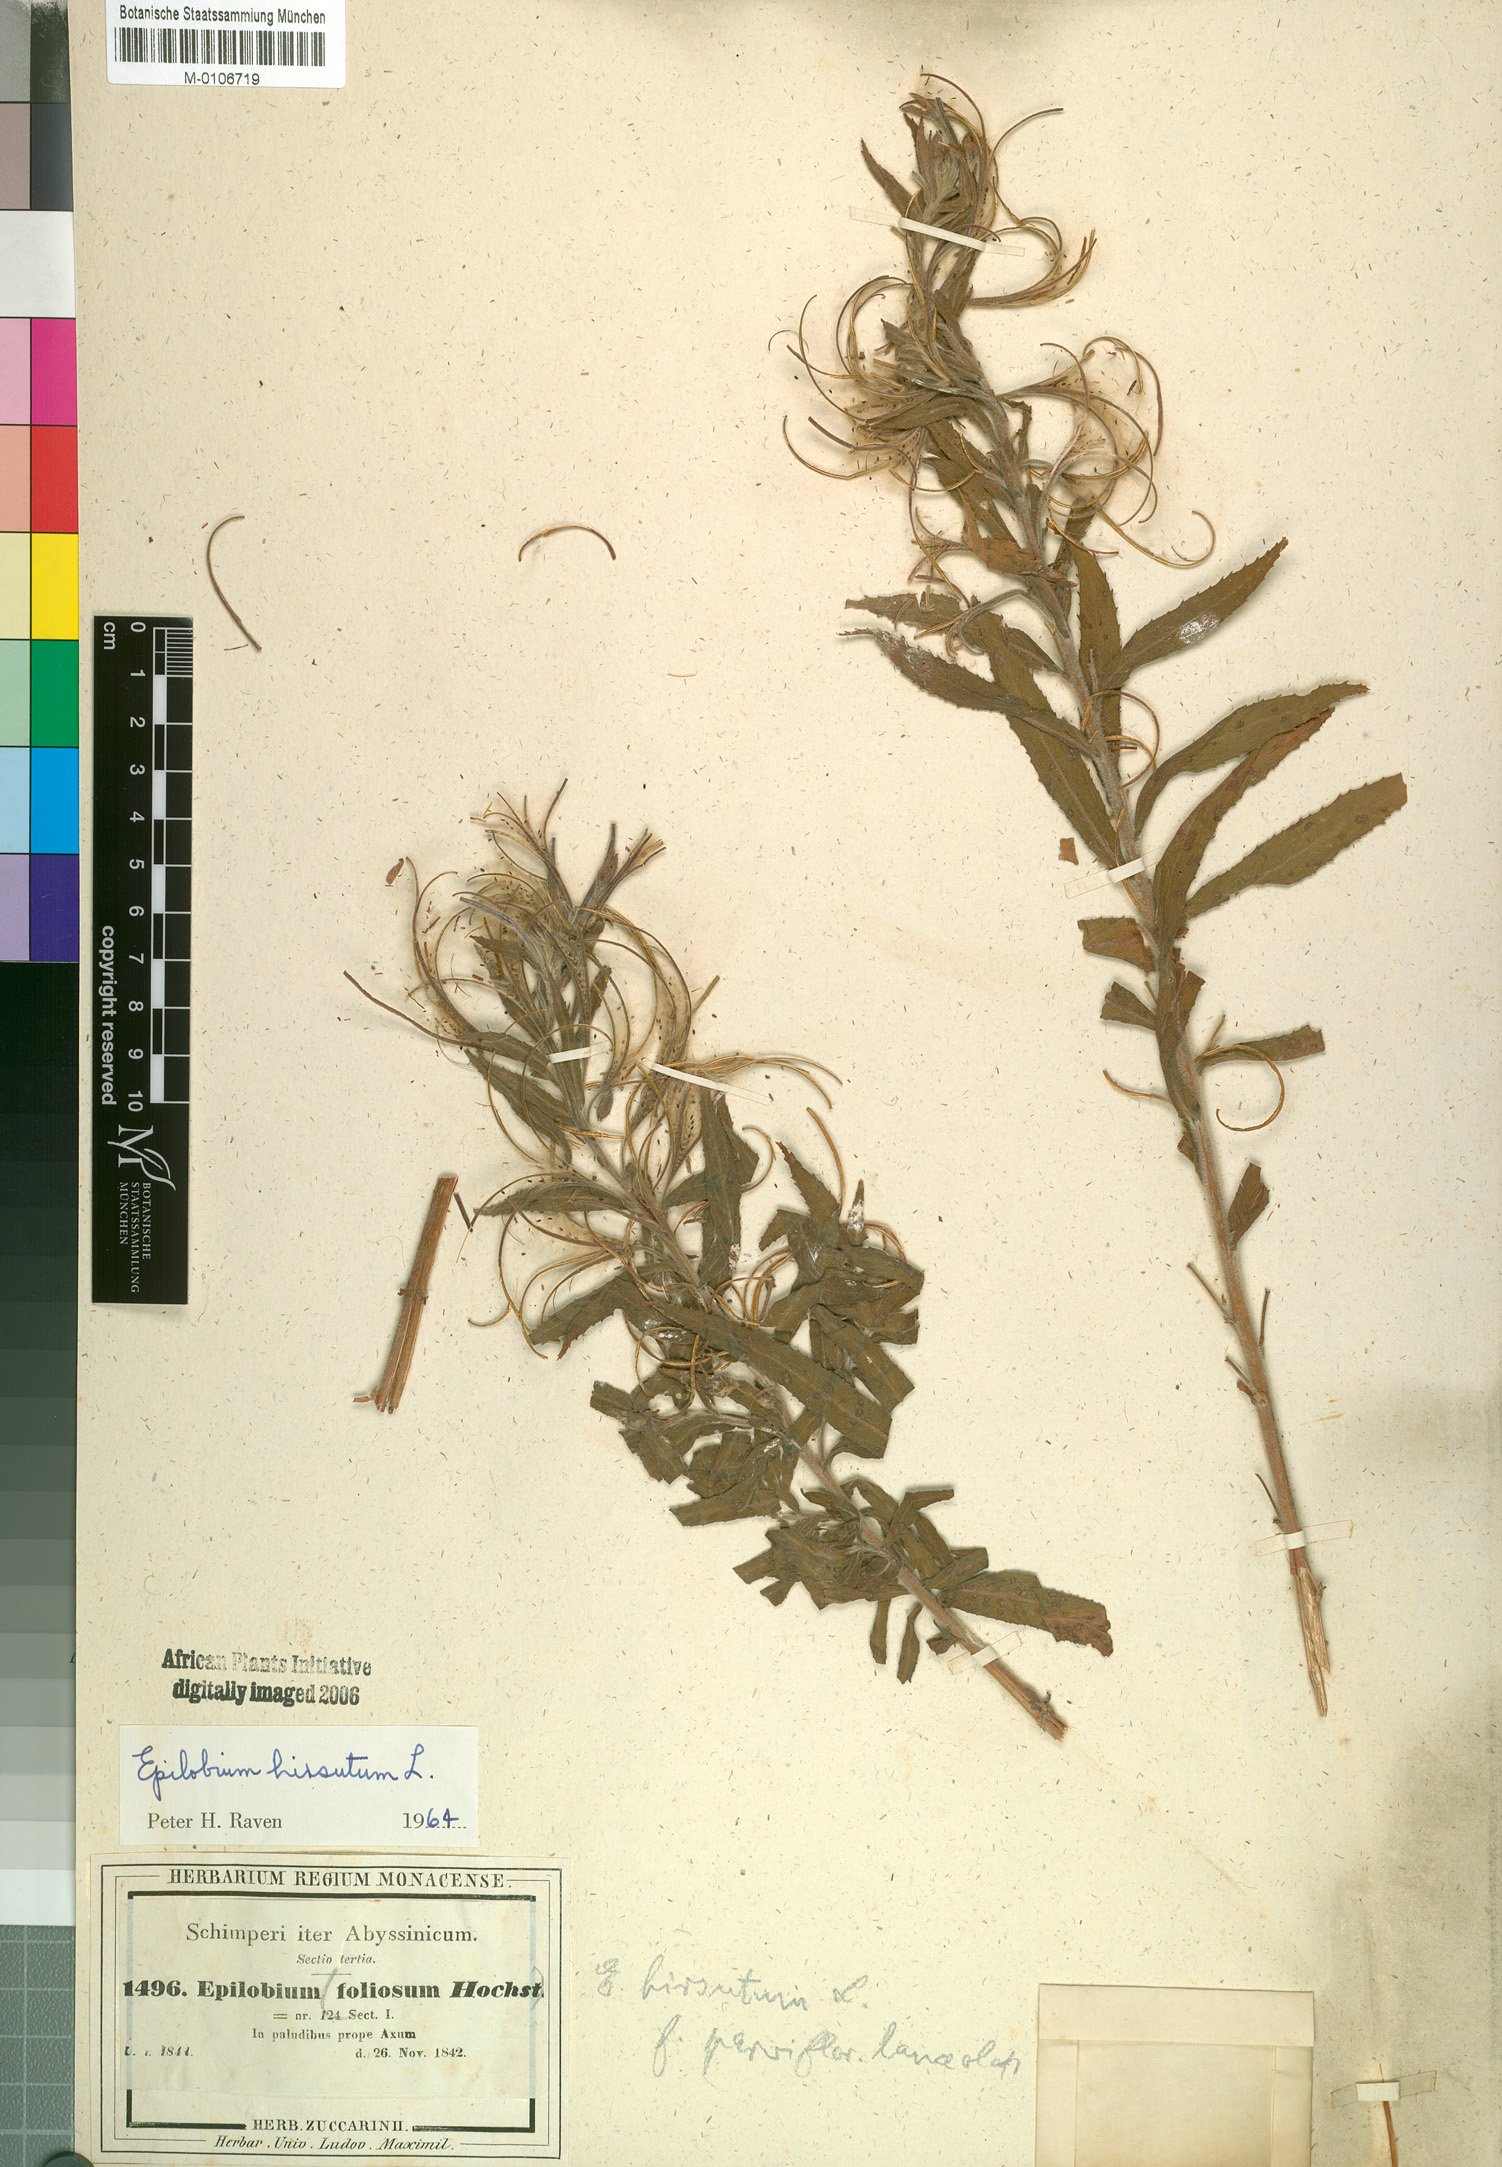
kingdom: Plantae
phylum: Tracheophyta
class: Magnoliopsida
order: Myrtales
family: Onagraceae
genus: Epilobium
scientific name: Epilobium hirsutum
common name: Great willowherb
